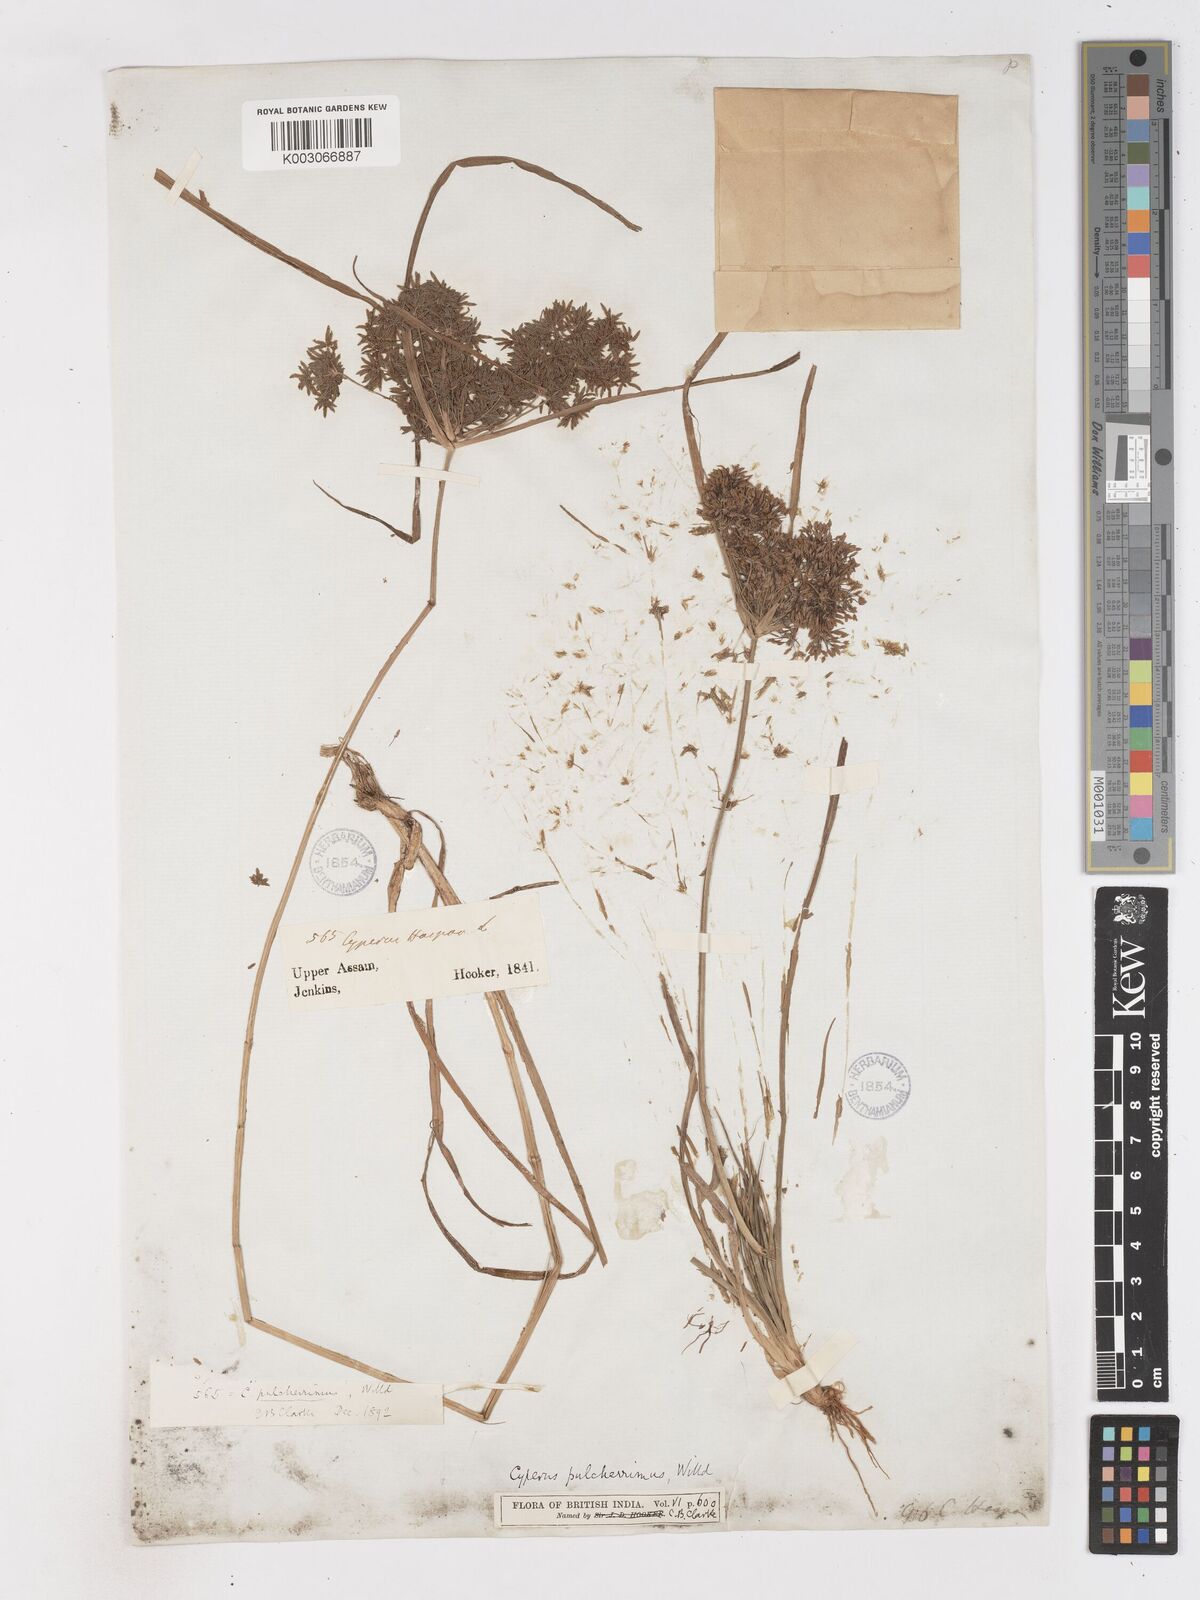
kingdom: Plantae
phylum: Tracheophyta
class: Liliopsida
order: Poales
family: Cyperaceae
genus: Cyperus
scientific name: Cyperus pulcherrimus
